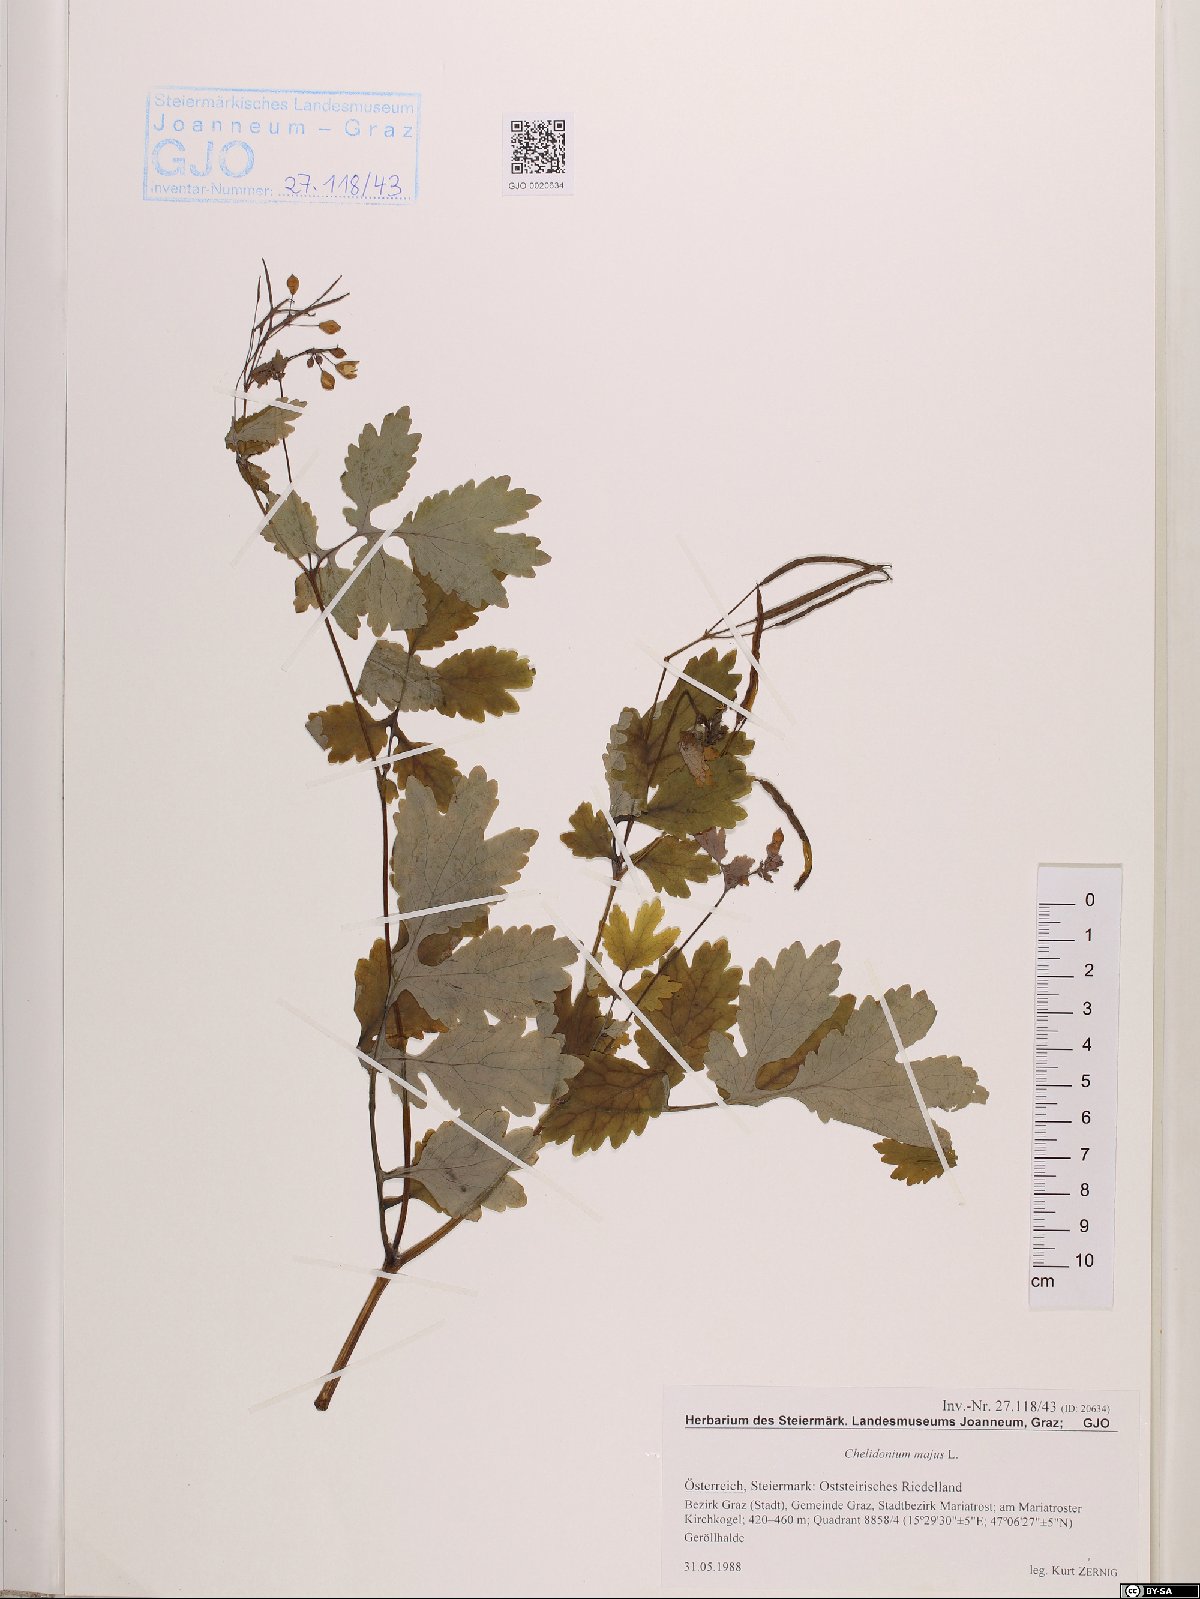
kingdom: Plantae
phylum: Tracheophyta
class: Magnoliopsida
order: Ranunculales
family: Papaveraceae
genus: Chelidonium
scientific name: Chelidonium majus
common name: Greater celandine
